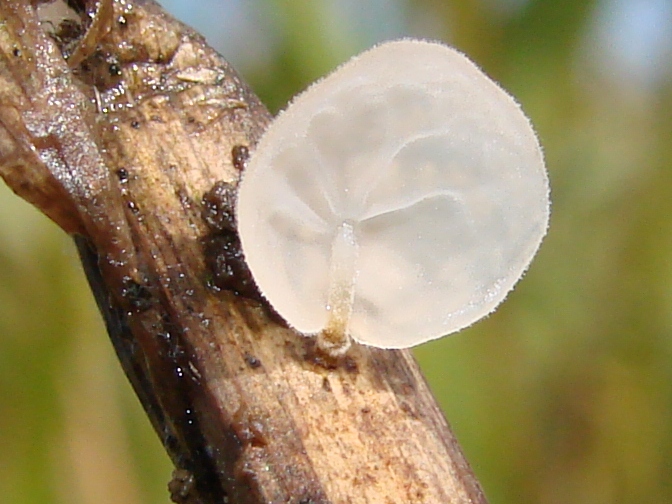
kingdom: Fungi
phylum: Basidiomycota
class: Agaricomycetes
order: Agaricales
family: Physalacriaceae
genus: Gloiocephala
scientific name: Gloiocephala
